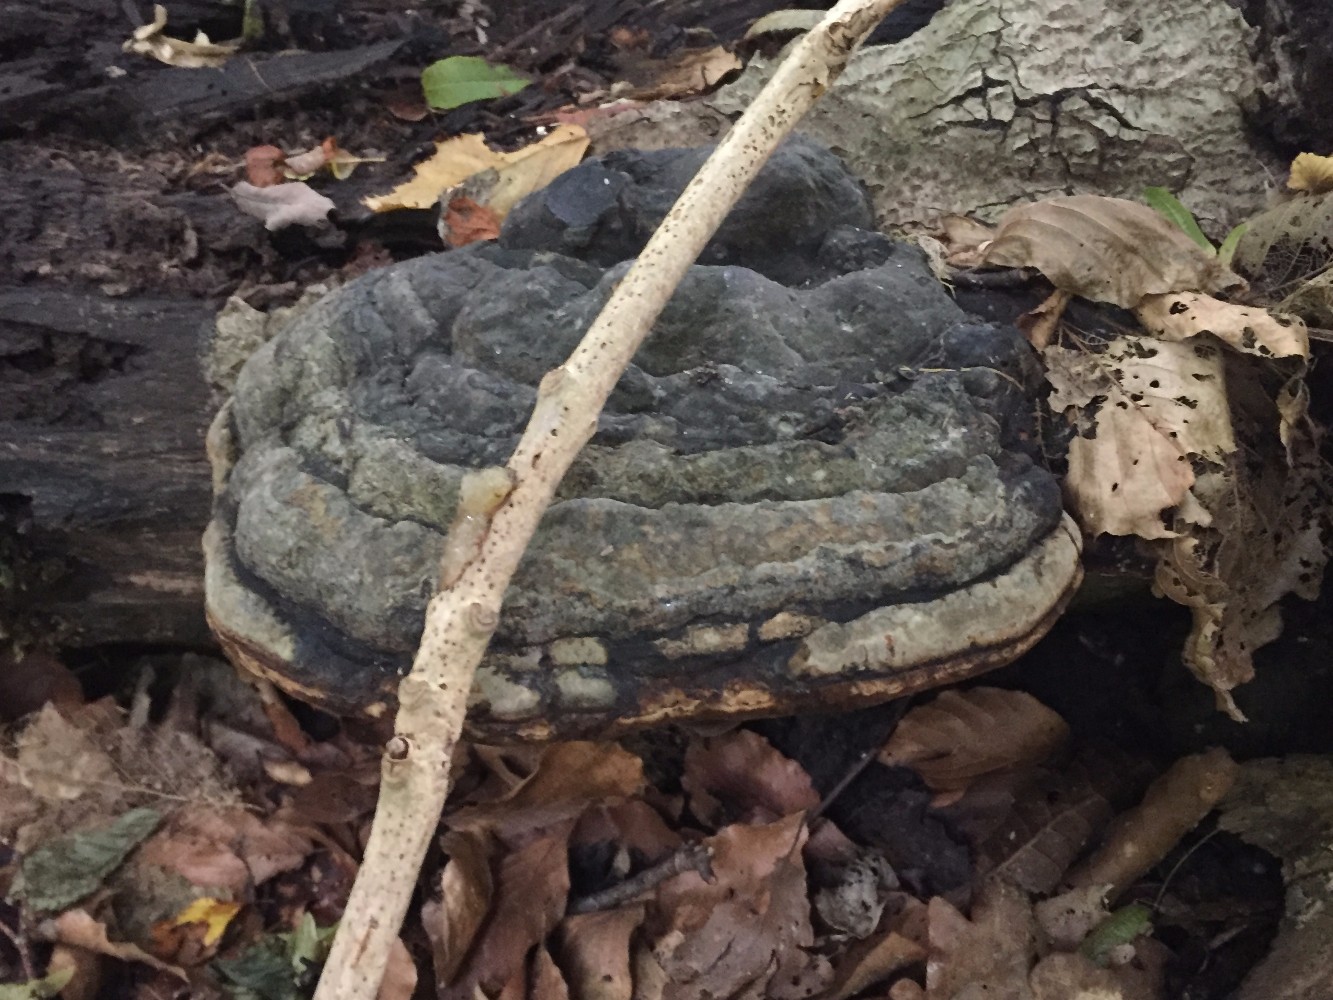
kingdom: Fungi
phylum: Basidiomycota
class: Agaricomycetes
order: Polyporales
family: Polyporaceae
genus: Fomes
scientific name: Fomes fomentarius
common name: tøndersvamp
